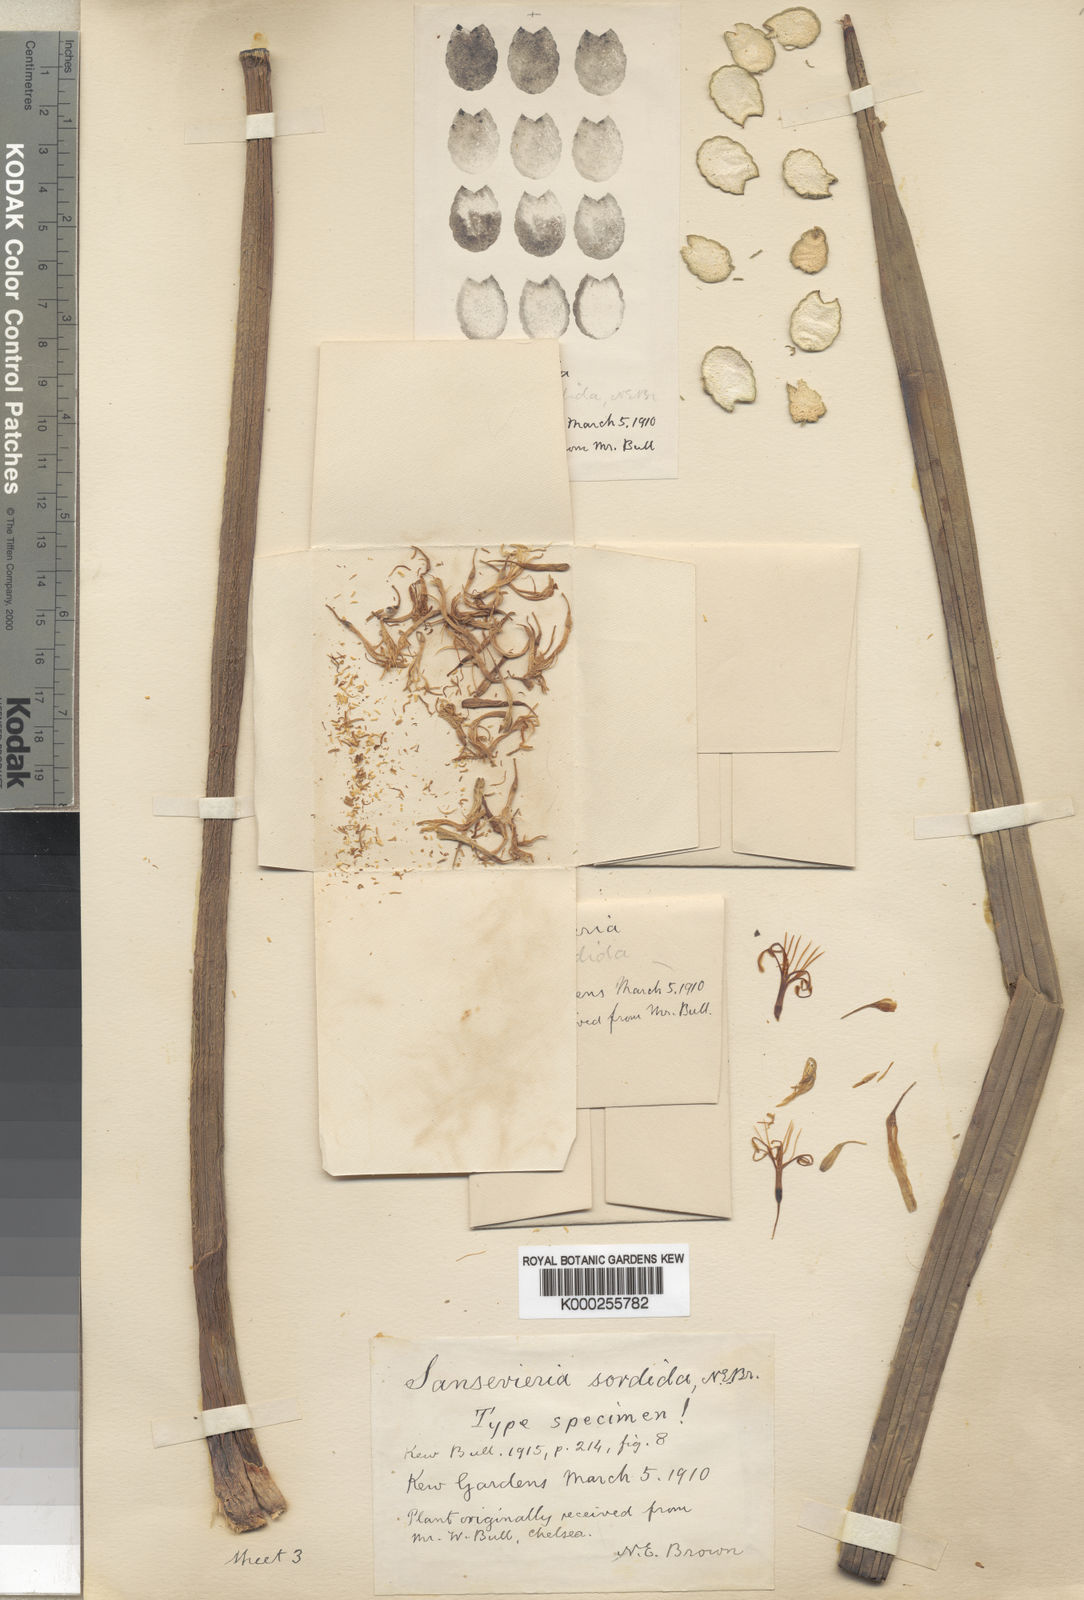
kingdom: Plantae
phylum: Tracheophyta
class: Liliopsida
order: Asparagales
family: Asparagaceae
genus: Dracaena
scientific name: Dracaena varians
